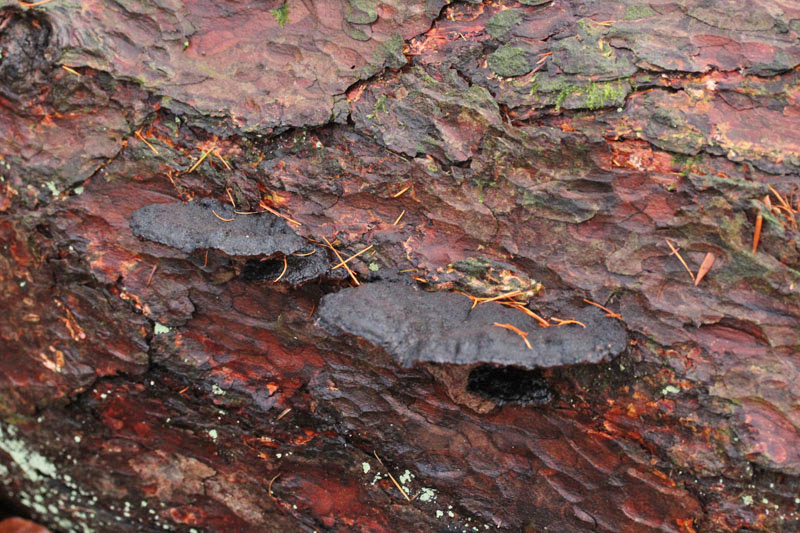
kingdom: Fungi
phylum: Basidiomycota
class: Agaricomycetes
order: Polyporales
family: Ischnodermataceae
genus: Ischnoderma
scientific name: Ischnoderma benzoinum
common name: gran-tjæreporesvamp
